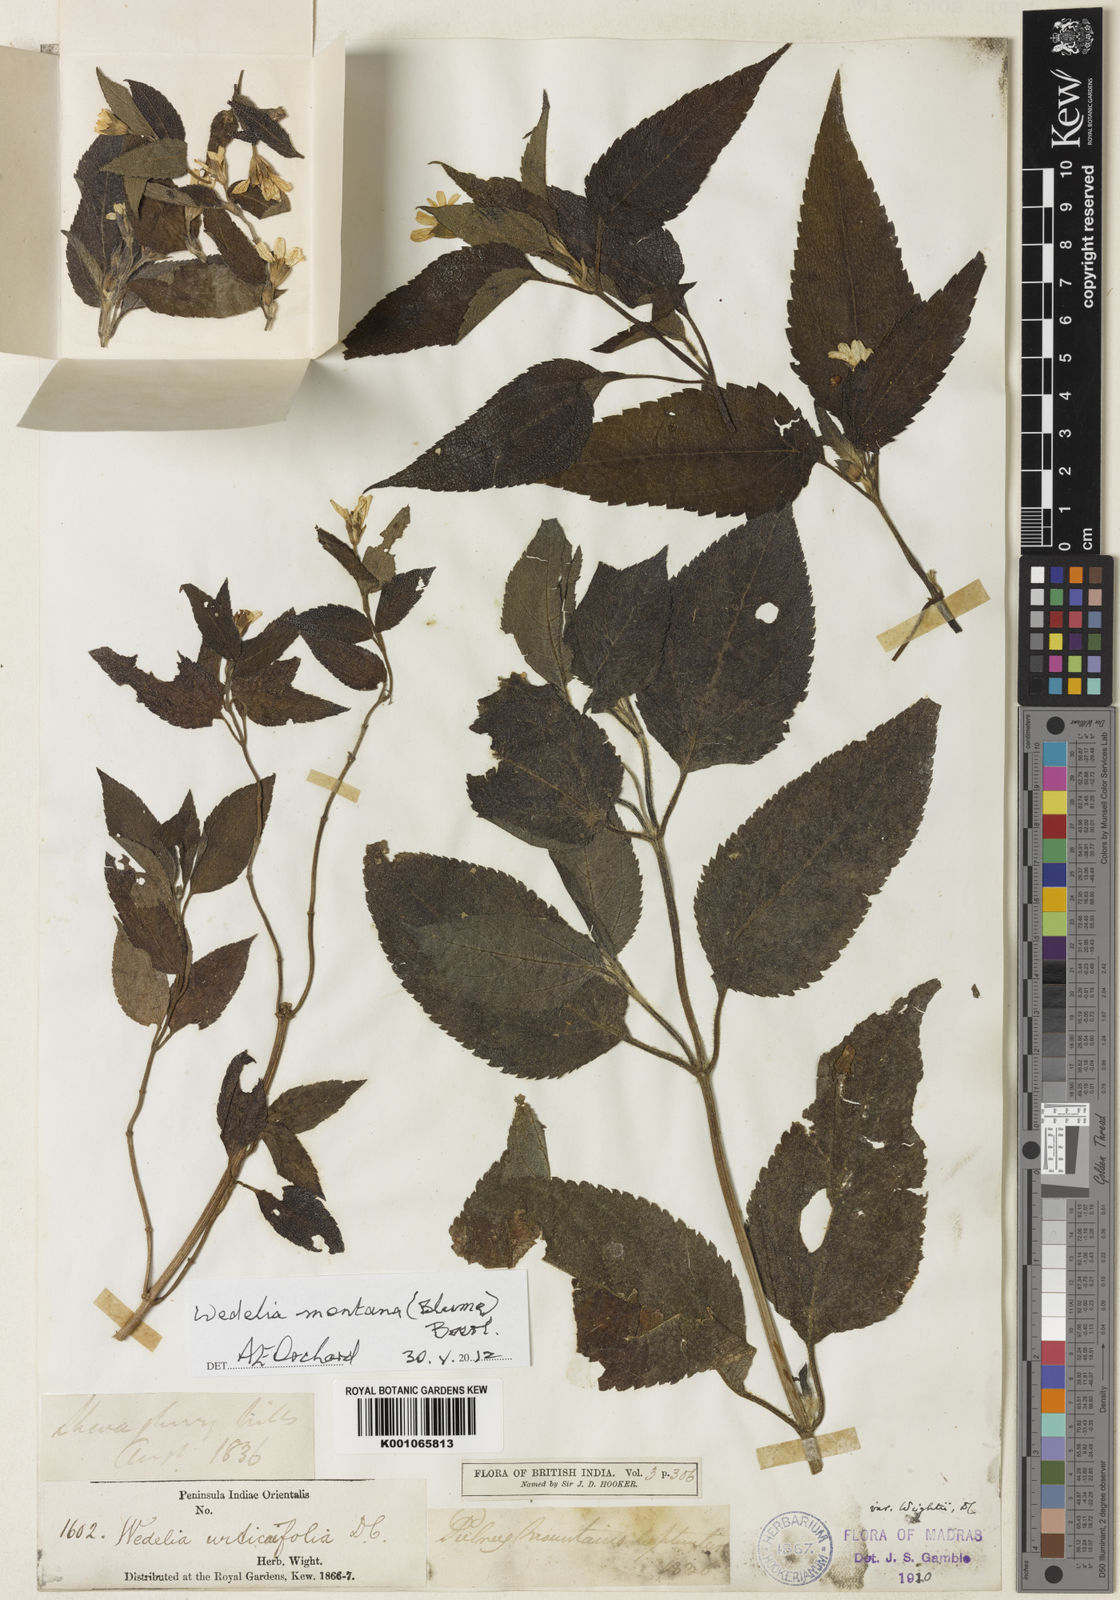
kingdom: Plantae
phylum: Tracheophyta
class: Magnoliopsida
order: Asterales
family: Asteraceae
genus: Indocypraea
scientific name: Indocypraea montana
